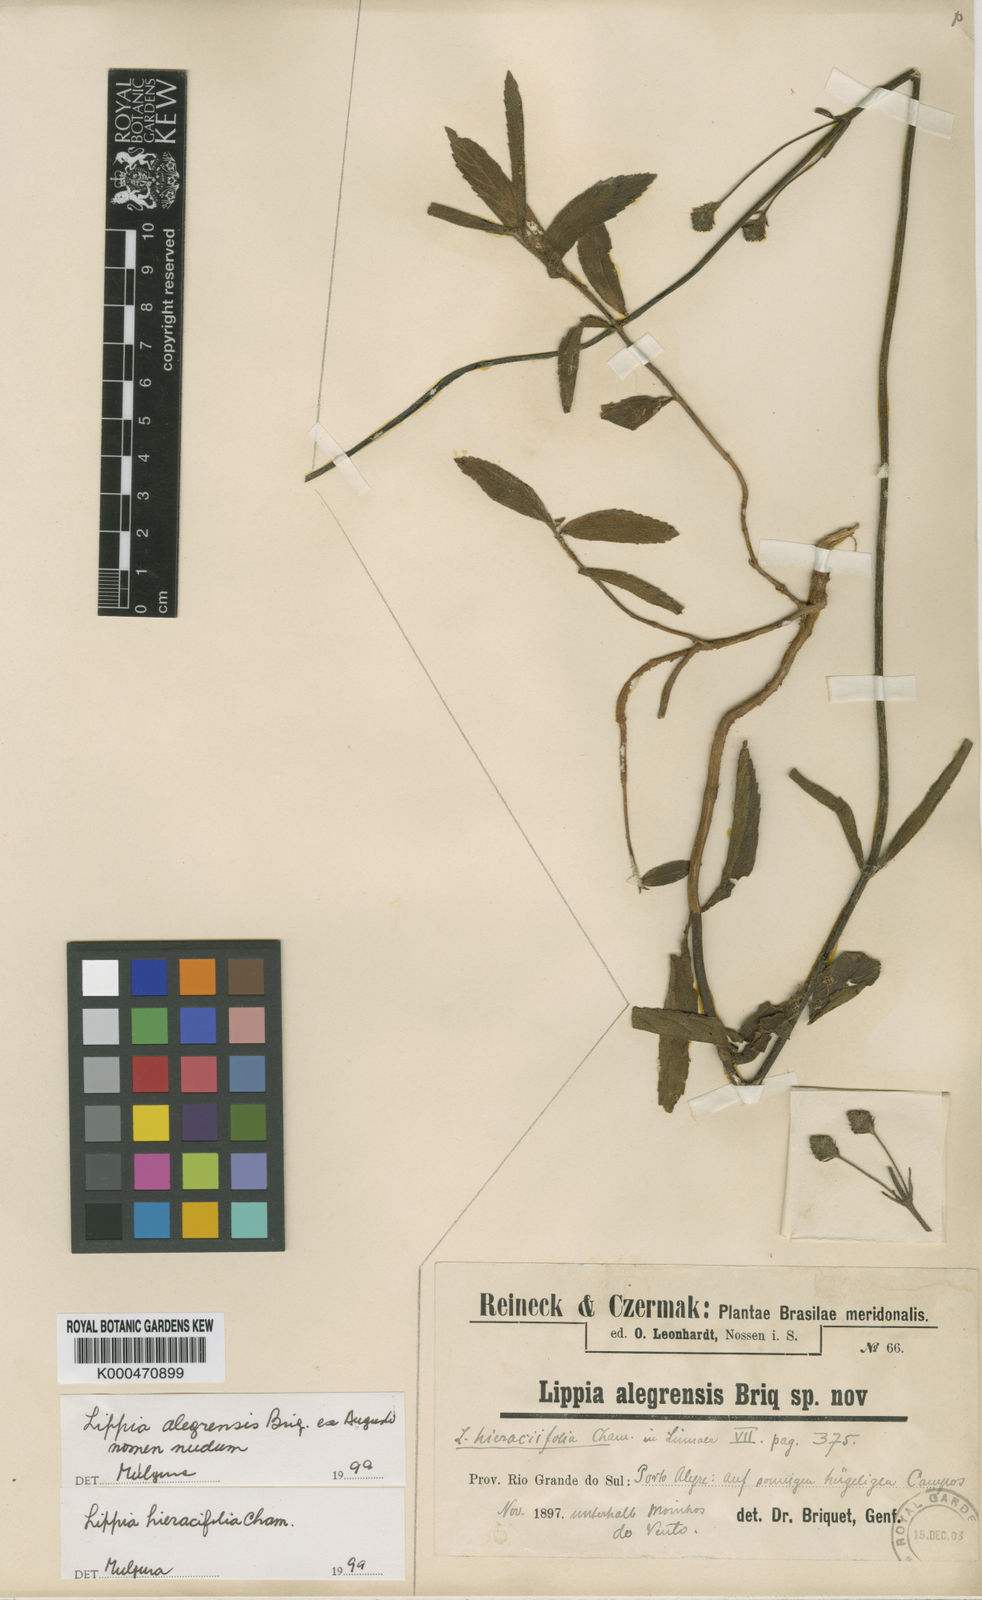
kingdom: Plantae
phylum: Tracheophyta
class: Magnoliopsida
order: Lamiales
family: Verbenaceae
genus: Lippia
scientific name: Lippia hieraciifolia
